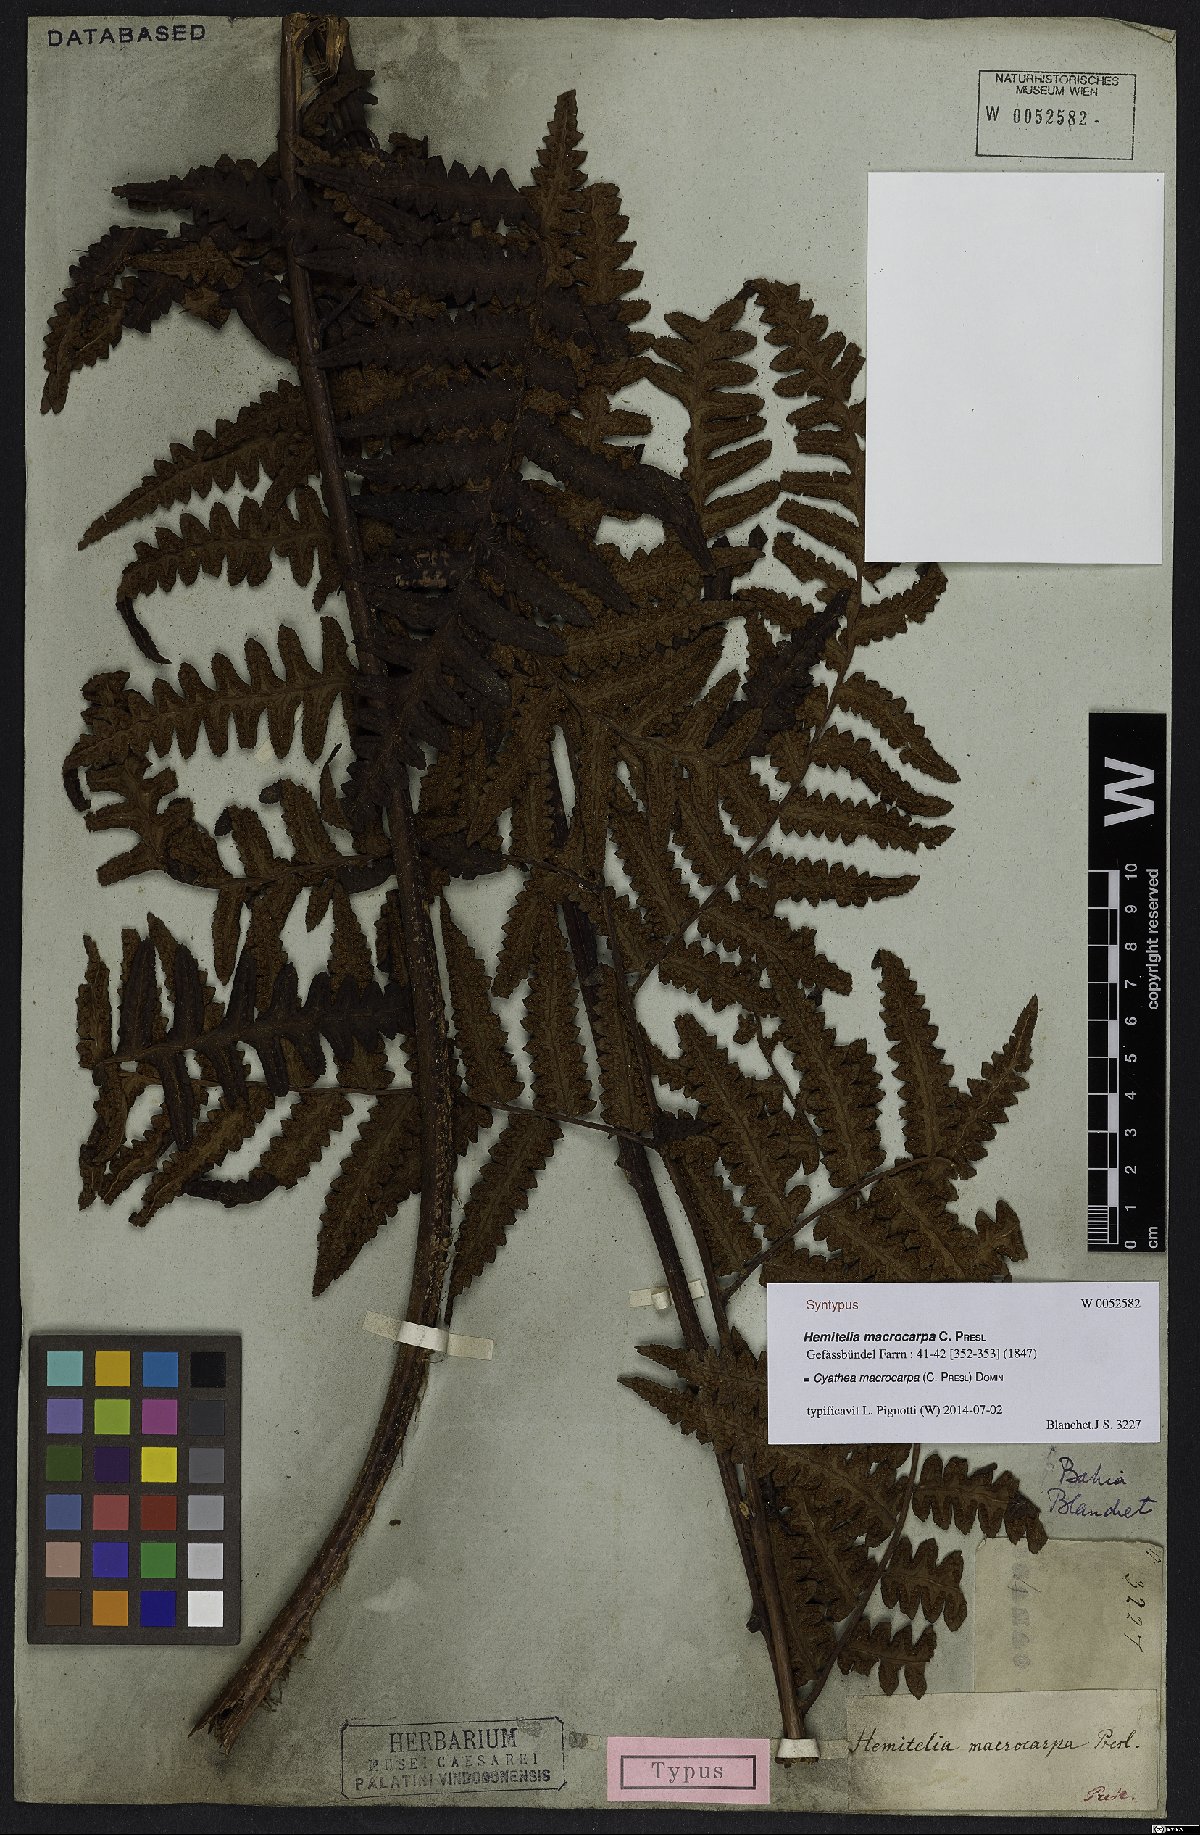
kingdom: Plantae
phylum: Tracheophyta
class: Polypodiopsida
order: Cyatheales
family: Cyatheaceae
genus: Cyathea
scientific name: Cyathea macrocarpa
